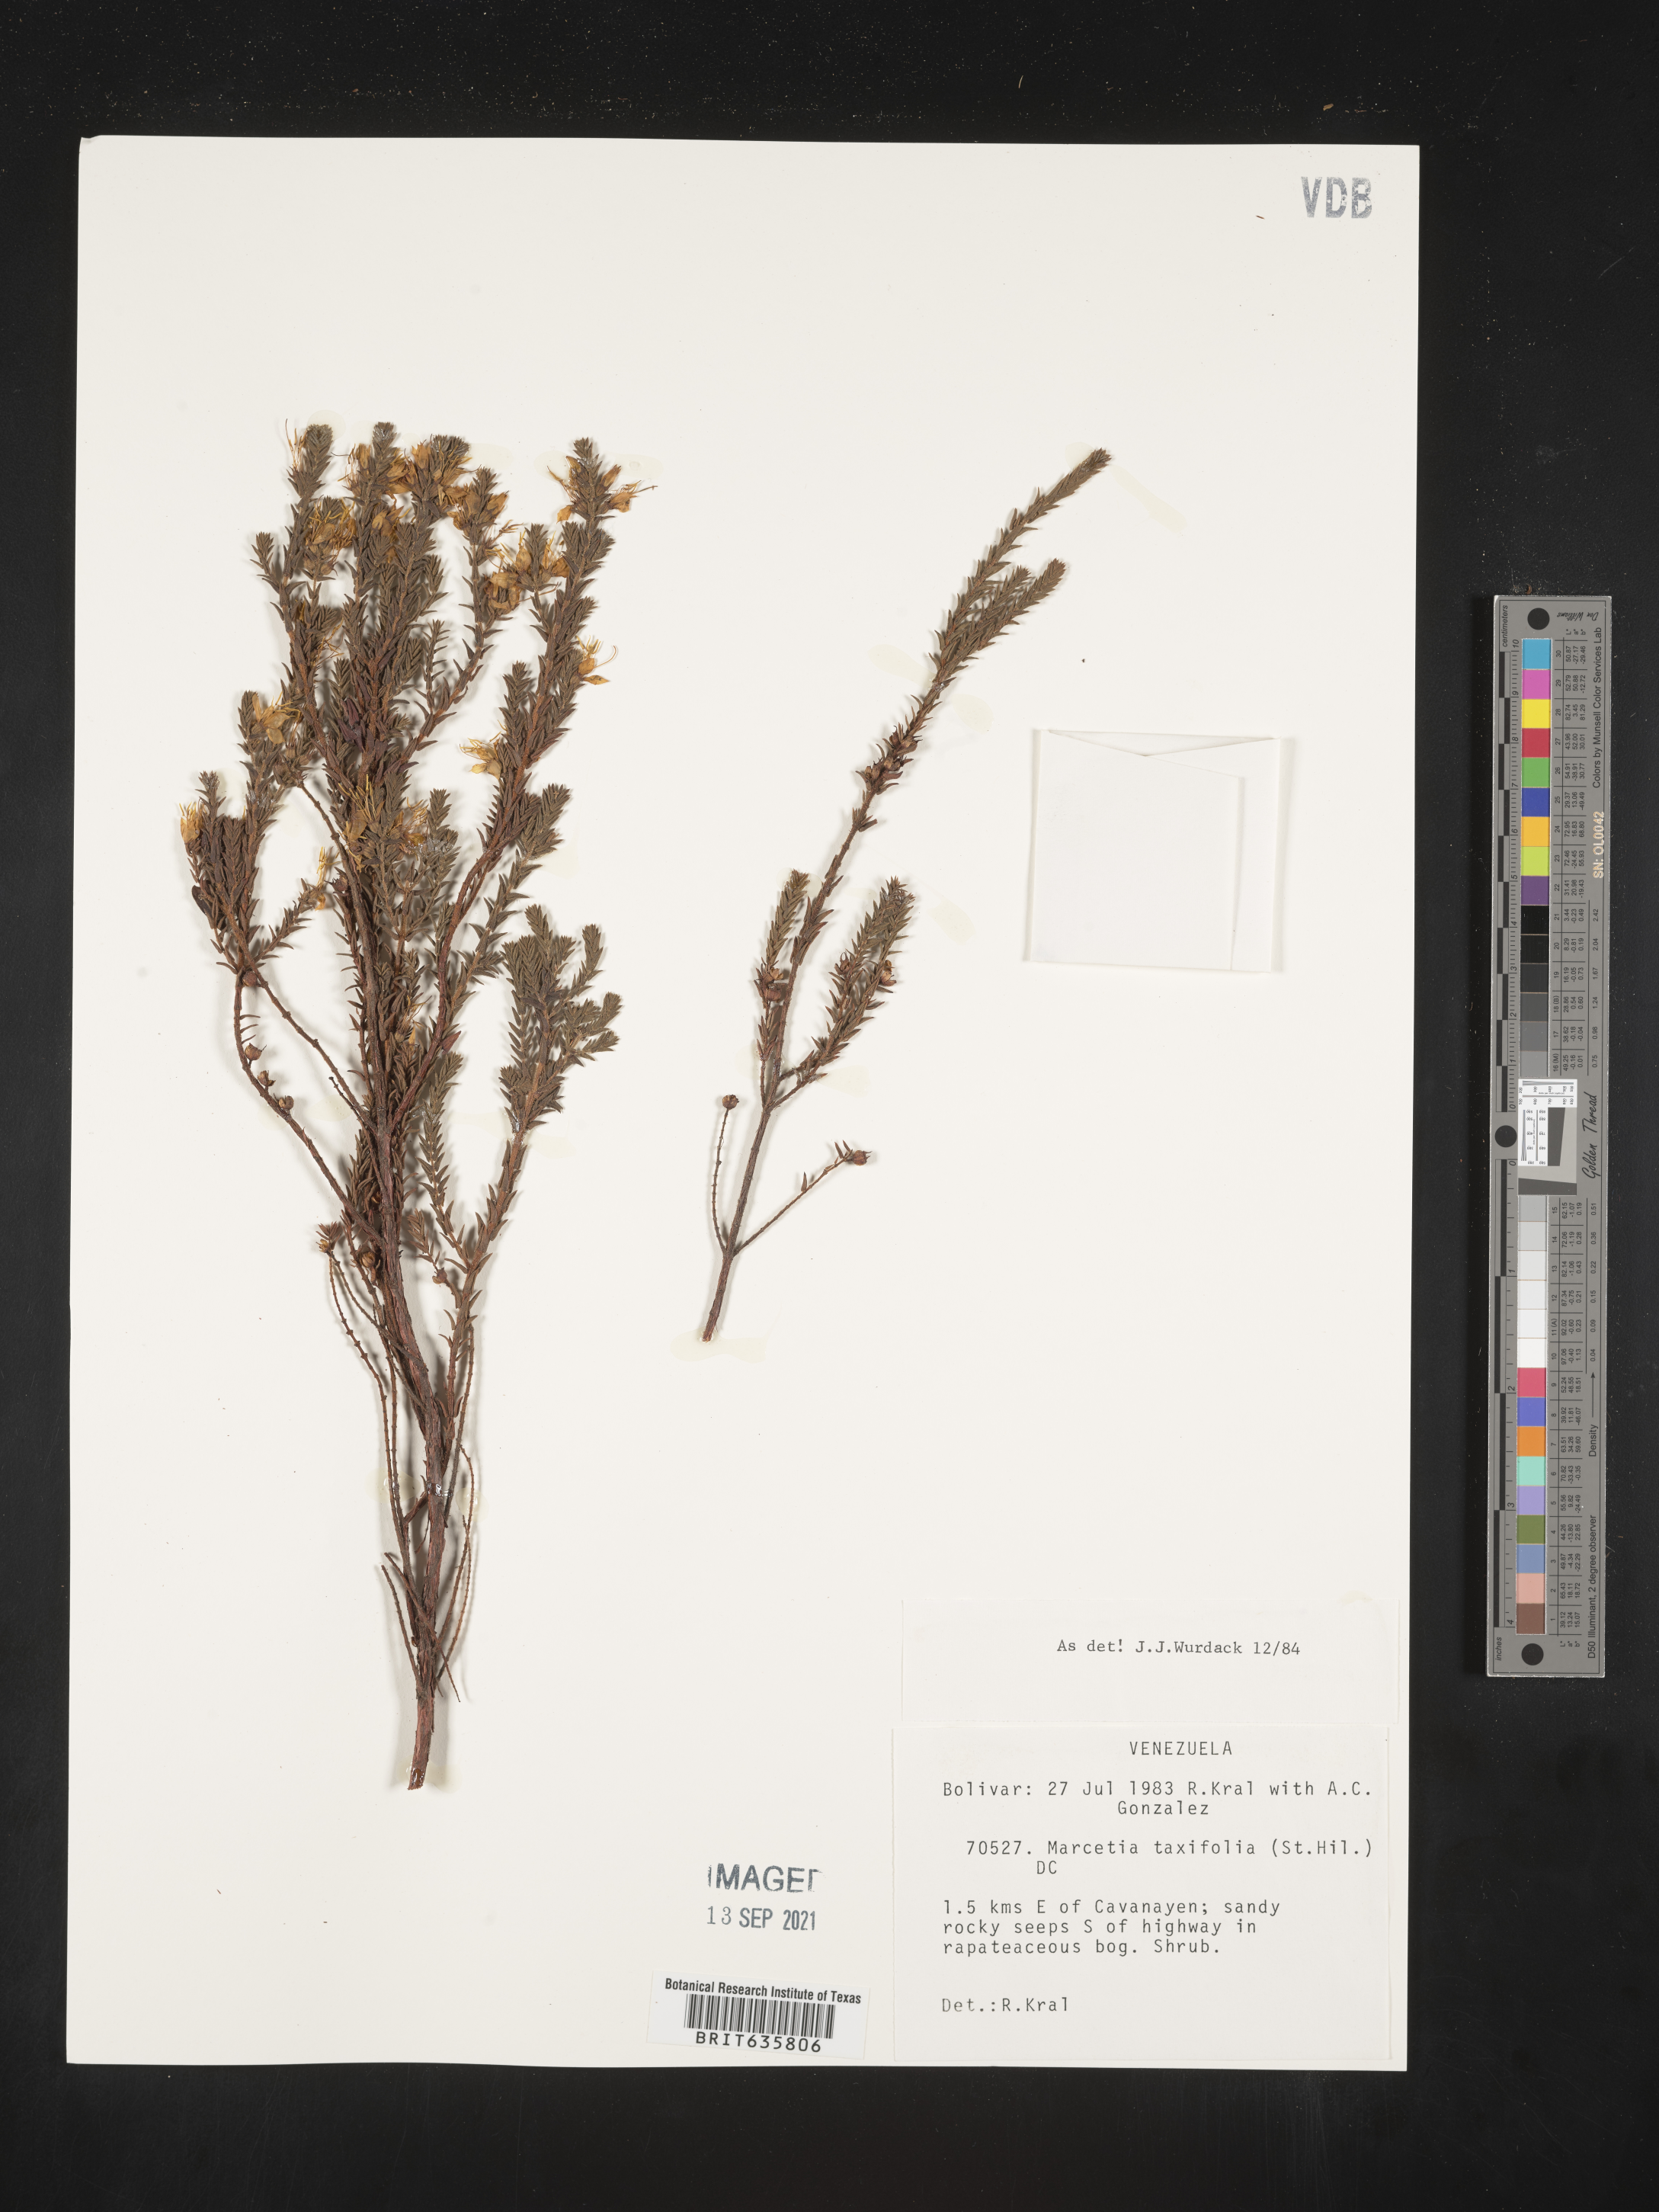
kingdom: Plantae
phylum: Tracheophyta
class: Magnoliopsida
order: Myrtales
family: Melastomataceae
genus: Marcetia
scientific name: Marcetia
